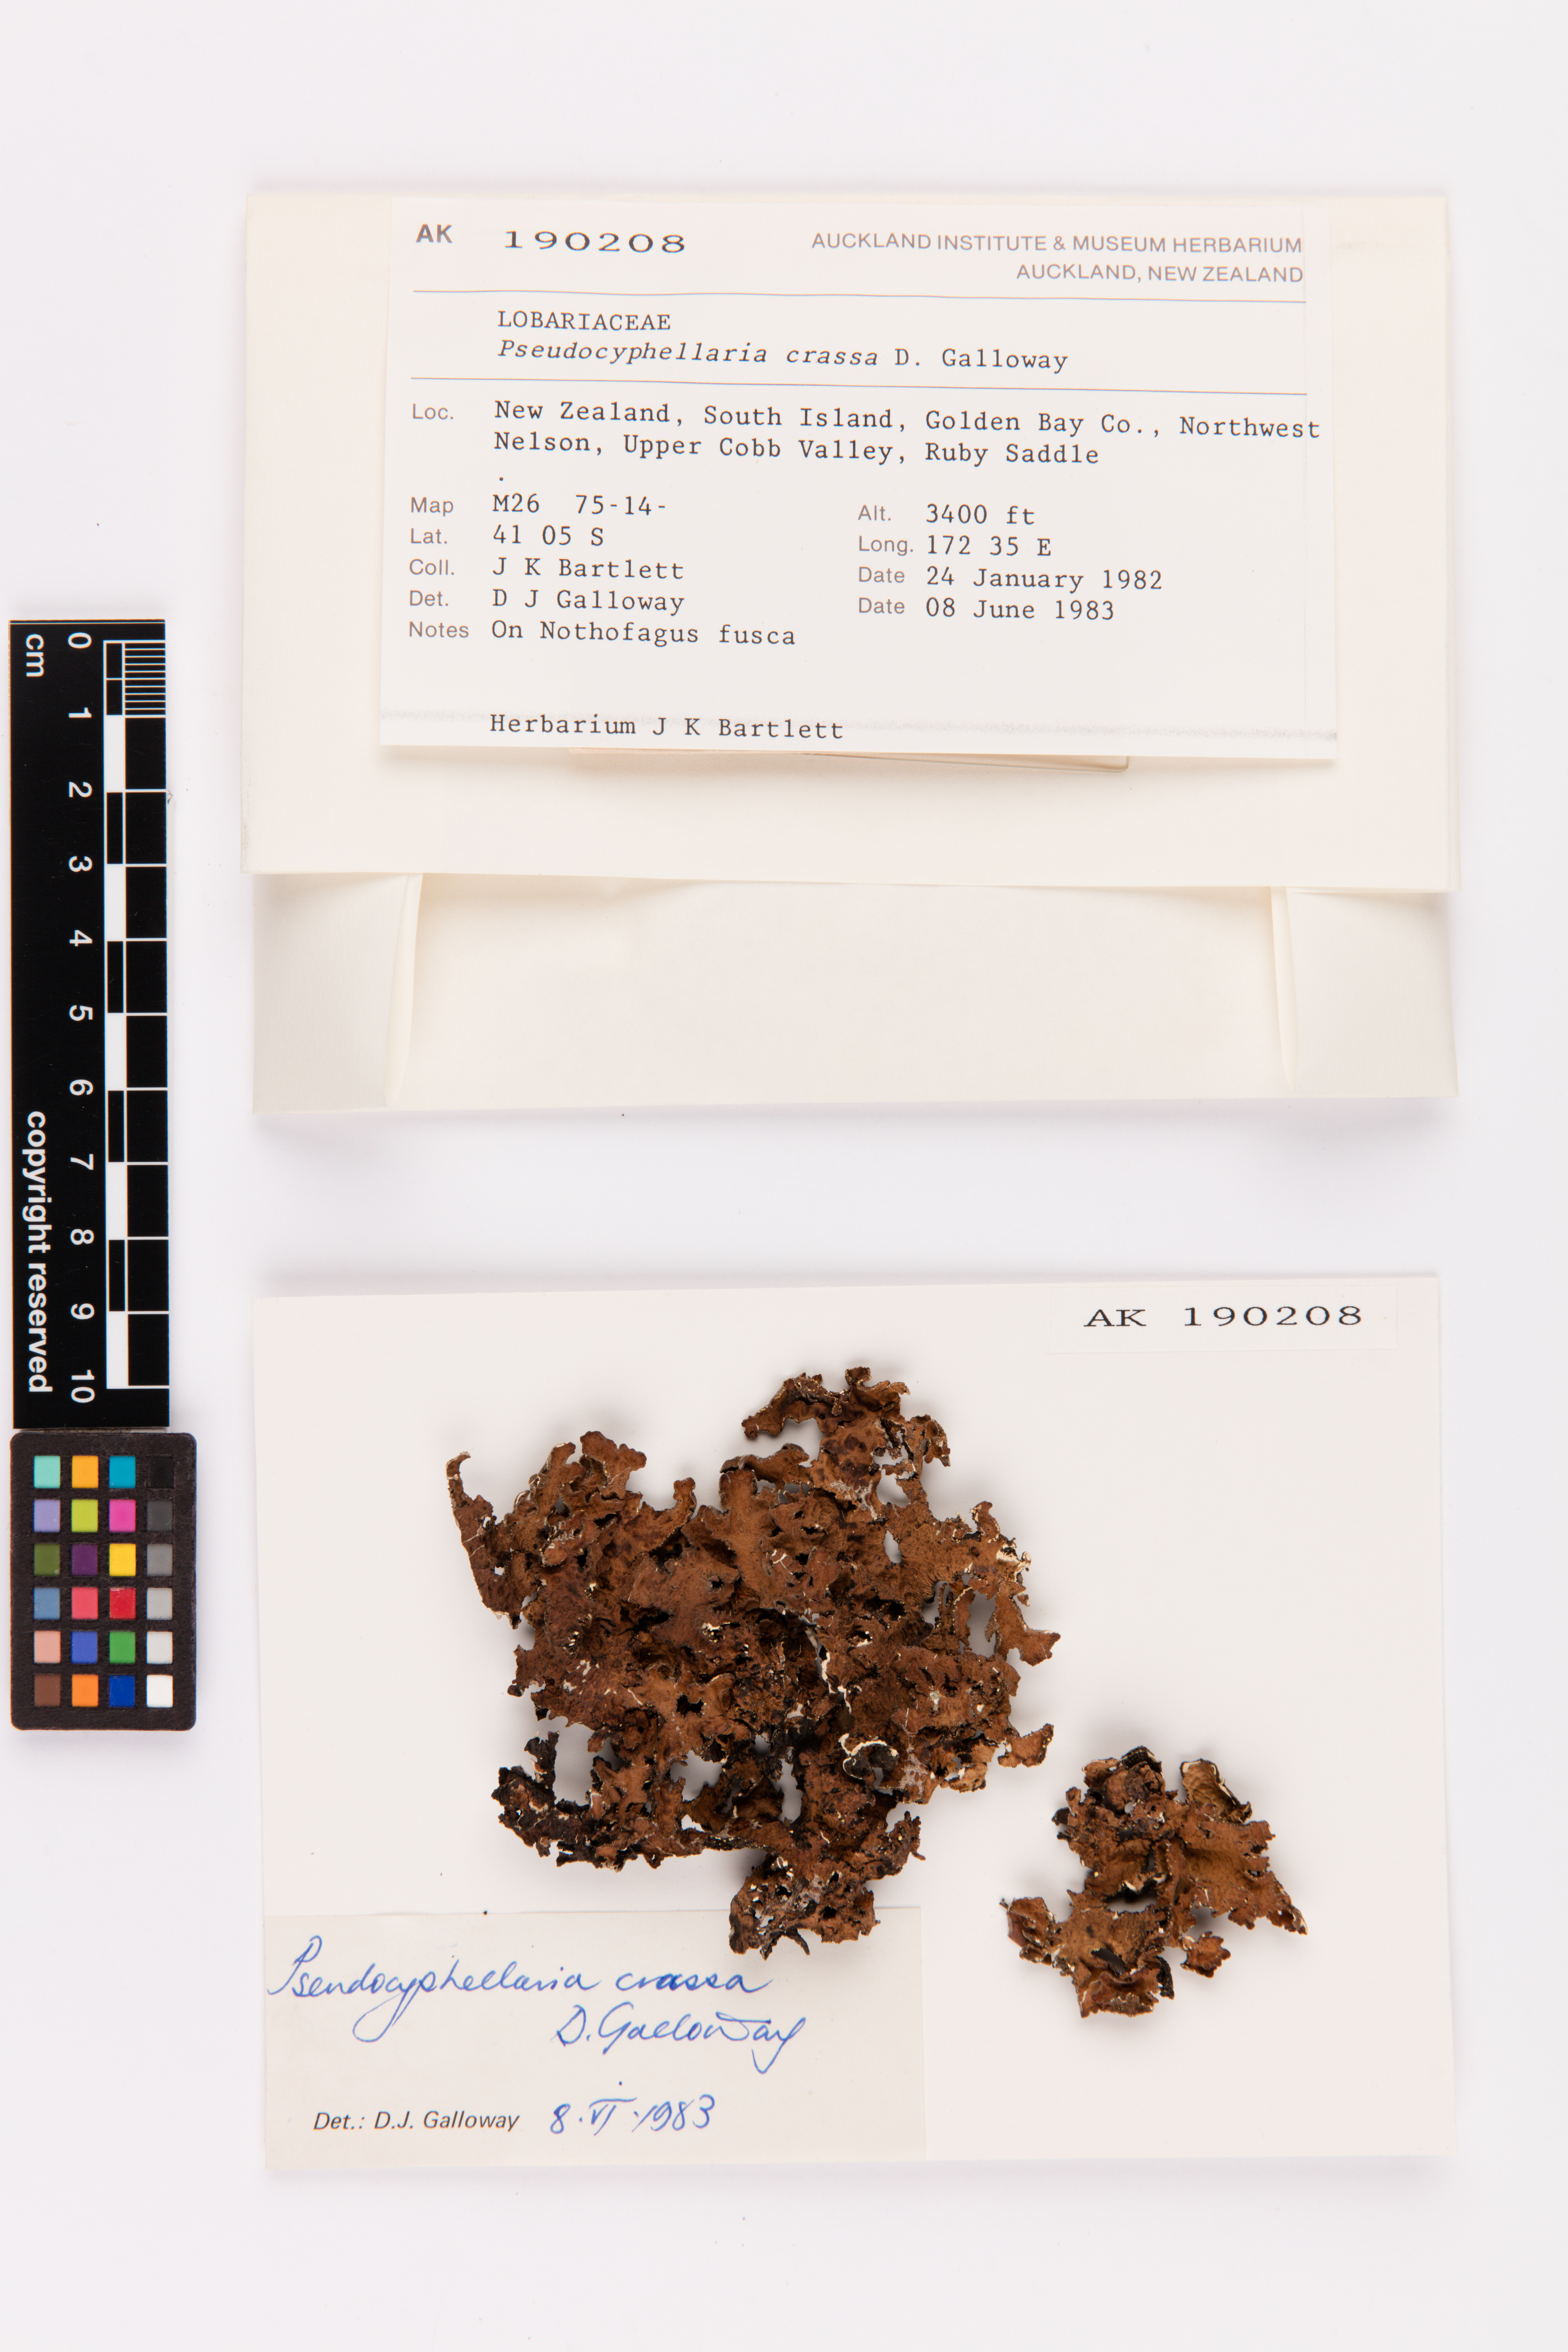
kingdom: Fungi
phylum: Ascomycota
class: Lecanoromycetes
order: Peltigerales
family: Lobariaceae
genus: Pseudocyphellaria
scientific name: Pseudocyphellaria crassa
